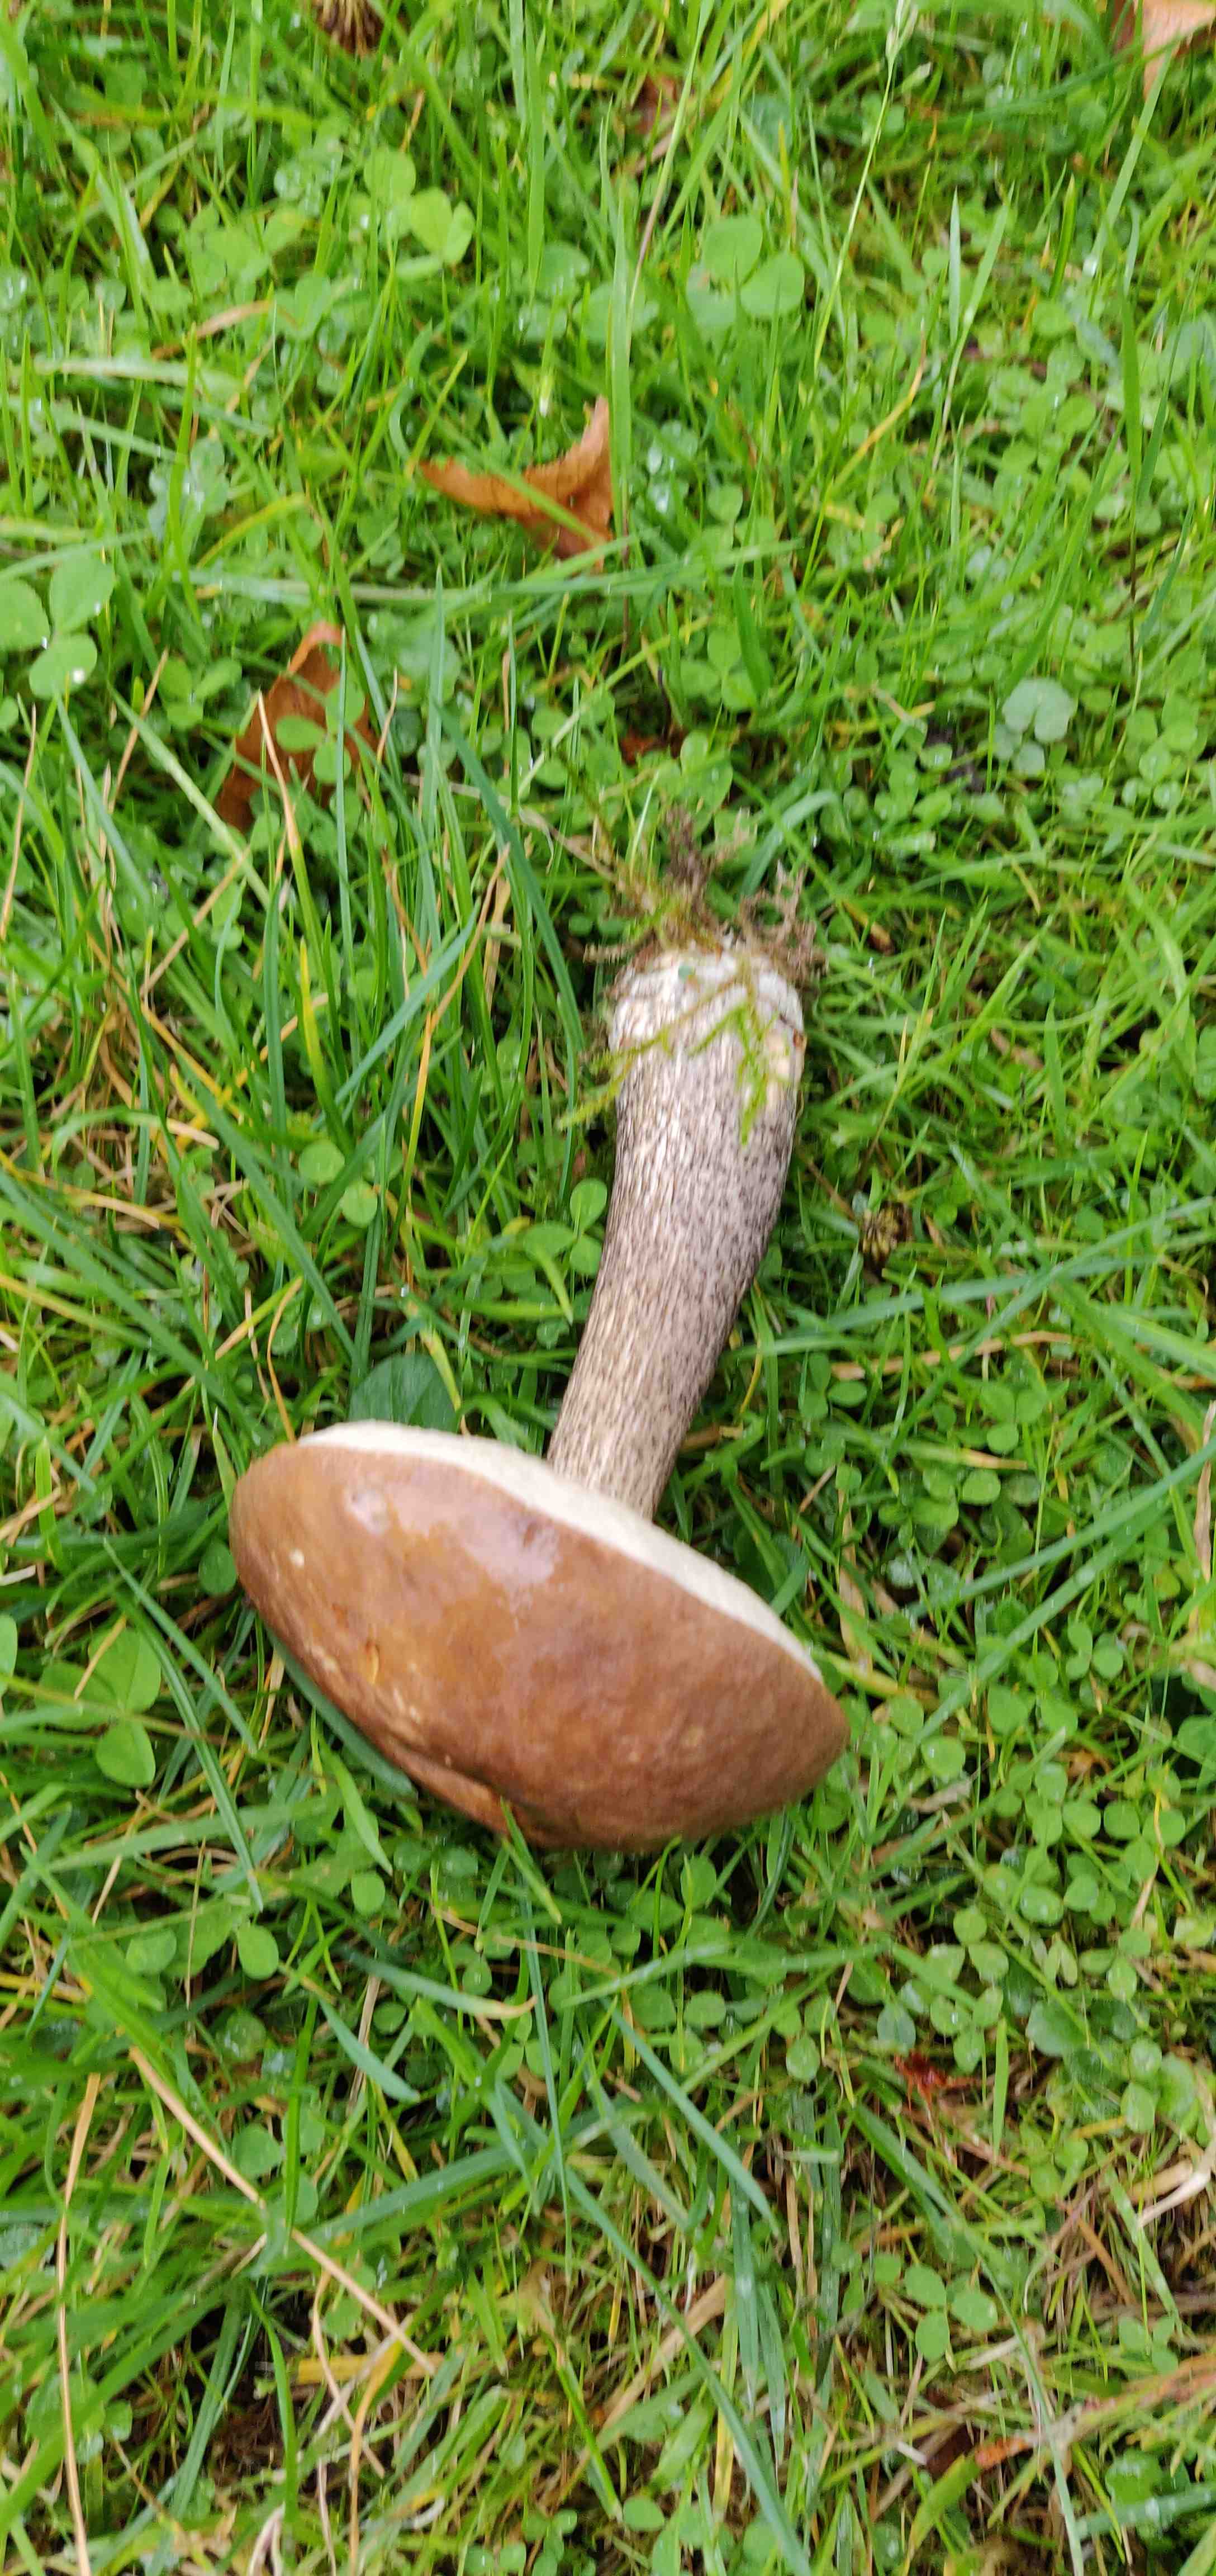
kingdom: Fungi
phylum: Basidiomycota
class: Agaricomycetes
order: Boletales
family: Boletaceae
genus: Leccinum
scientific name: Leccinum scabrum
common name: brun skælrørhat
